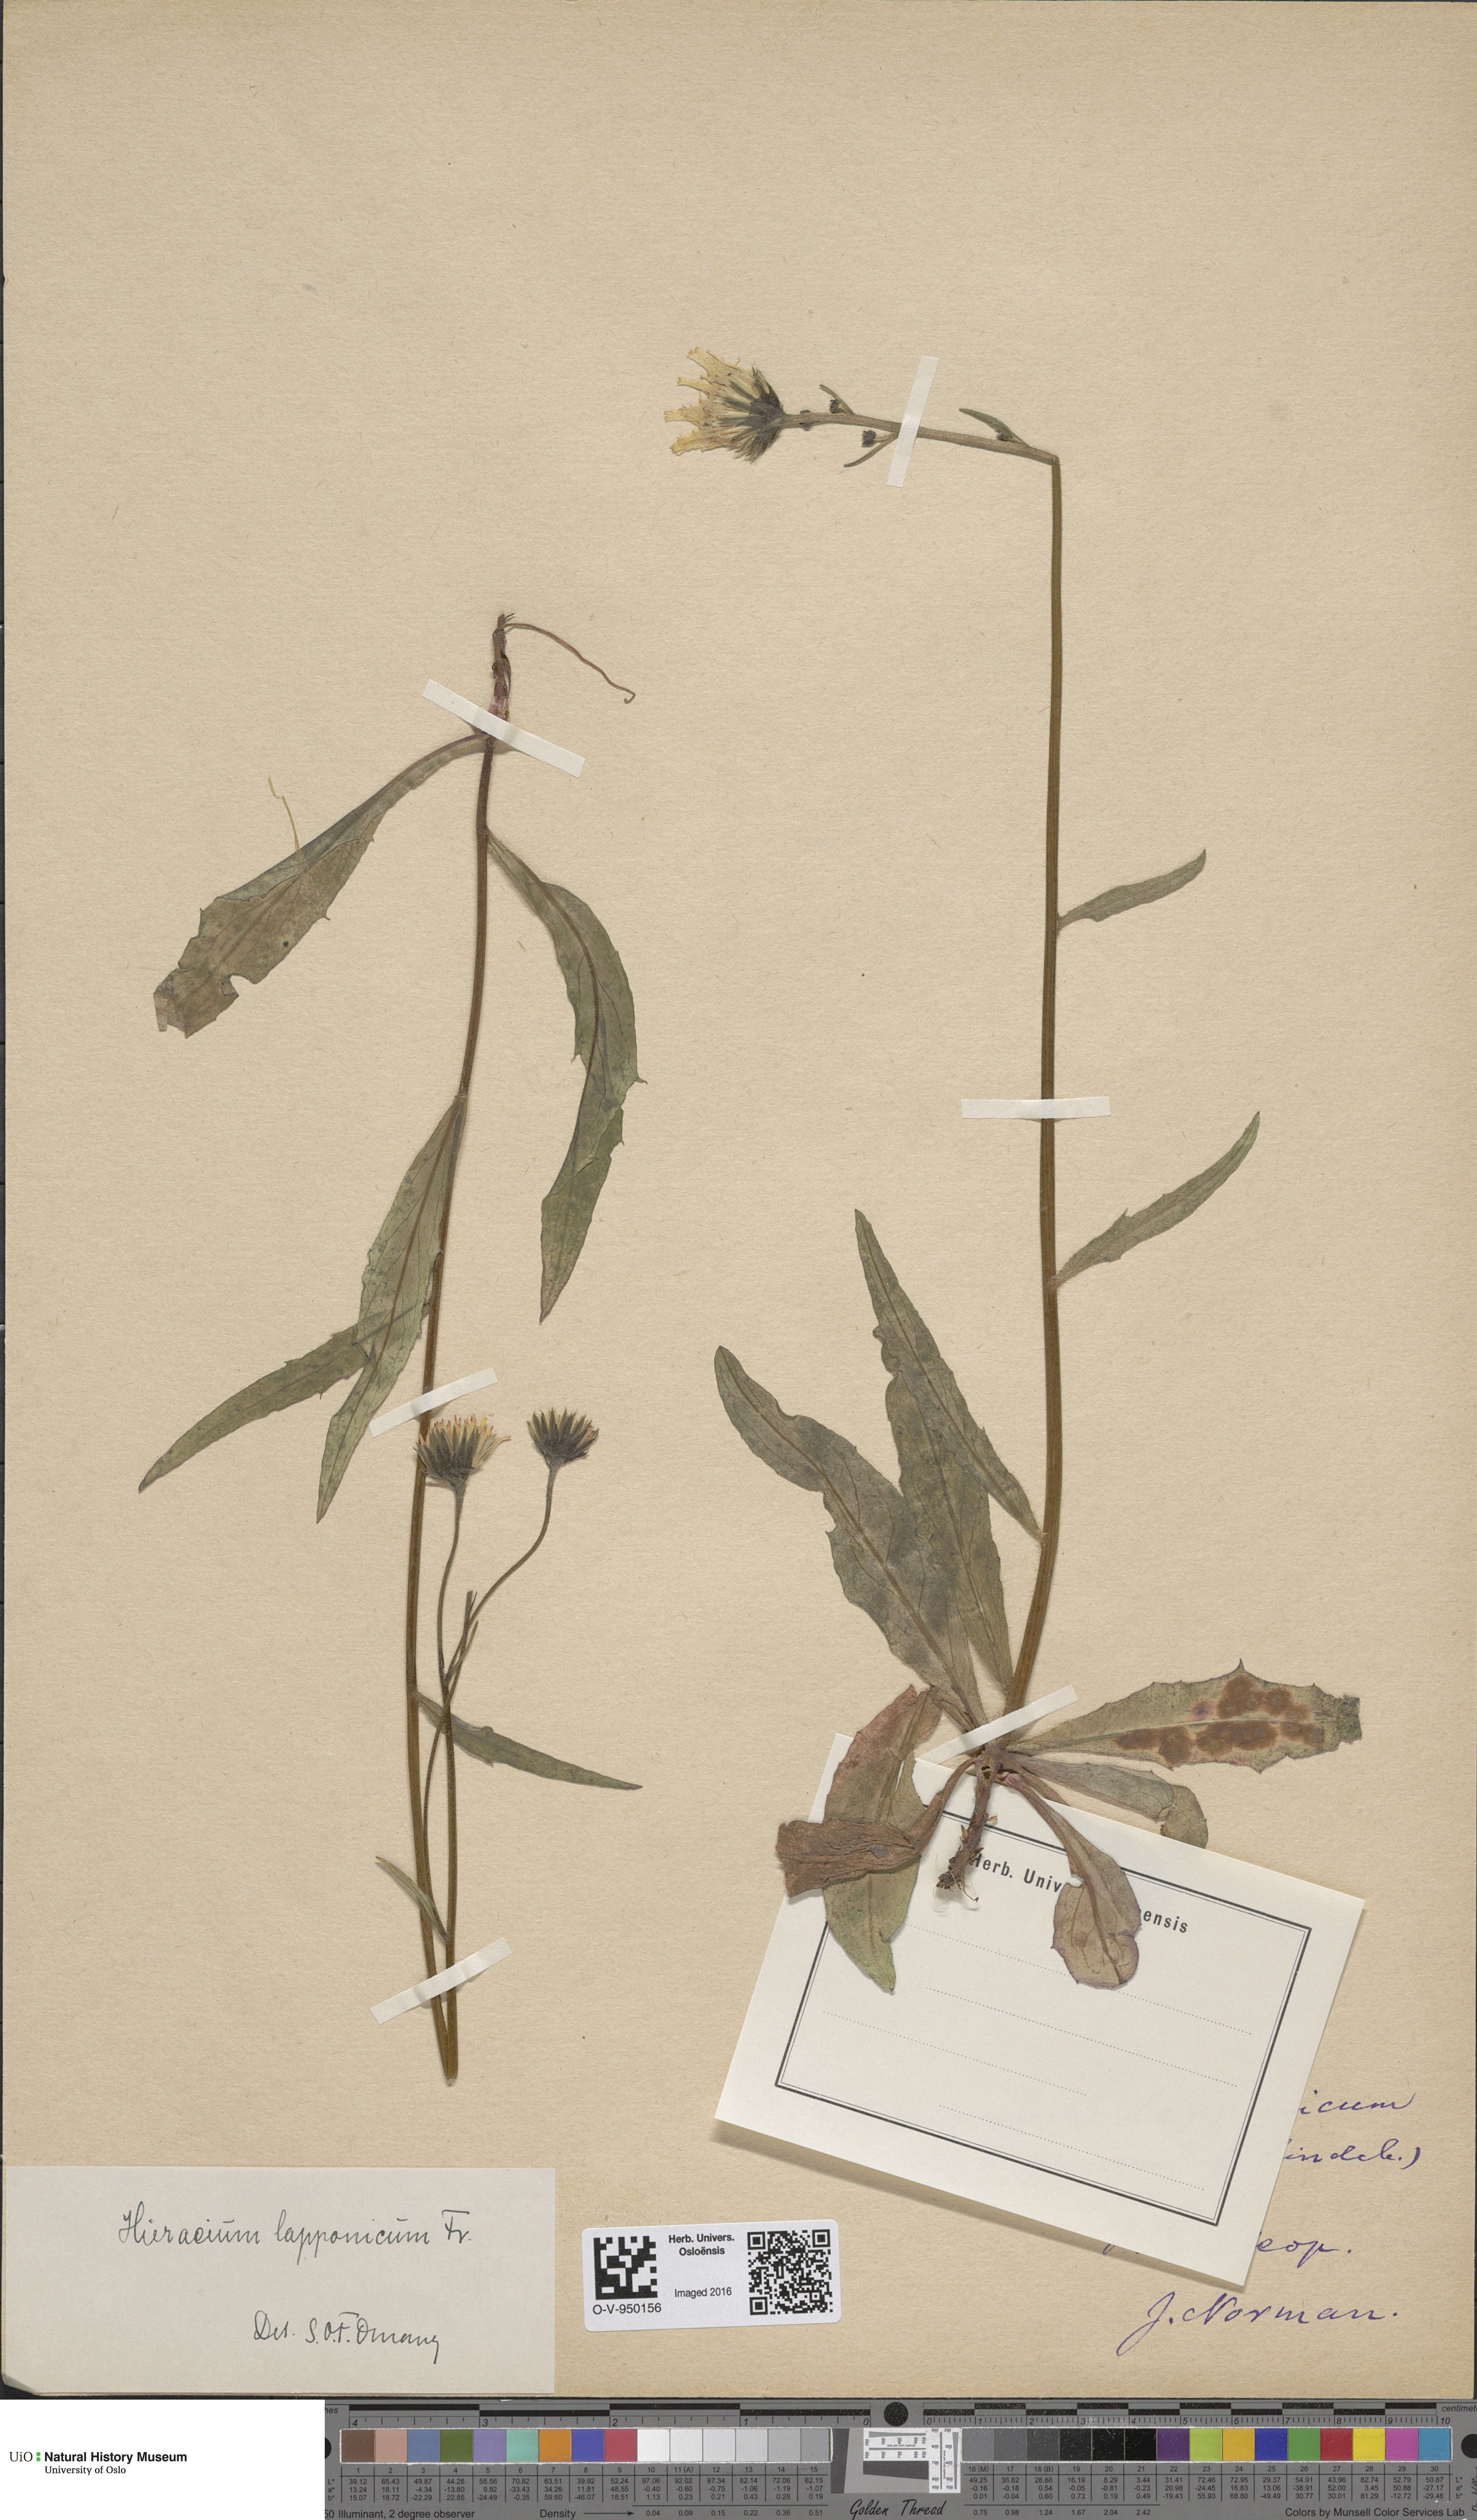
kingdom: Plantae
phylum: Tracheophyta
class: Magnoliopsida
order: Asterales
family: Asteraceae
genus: Hieracium
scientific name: Hieracium lapponicum
